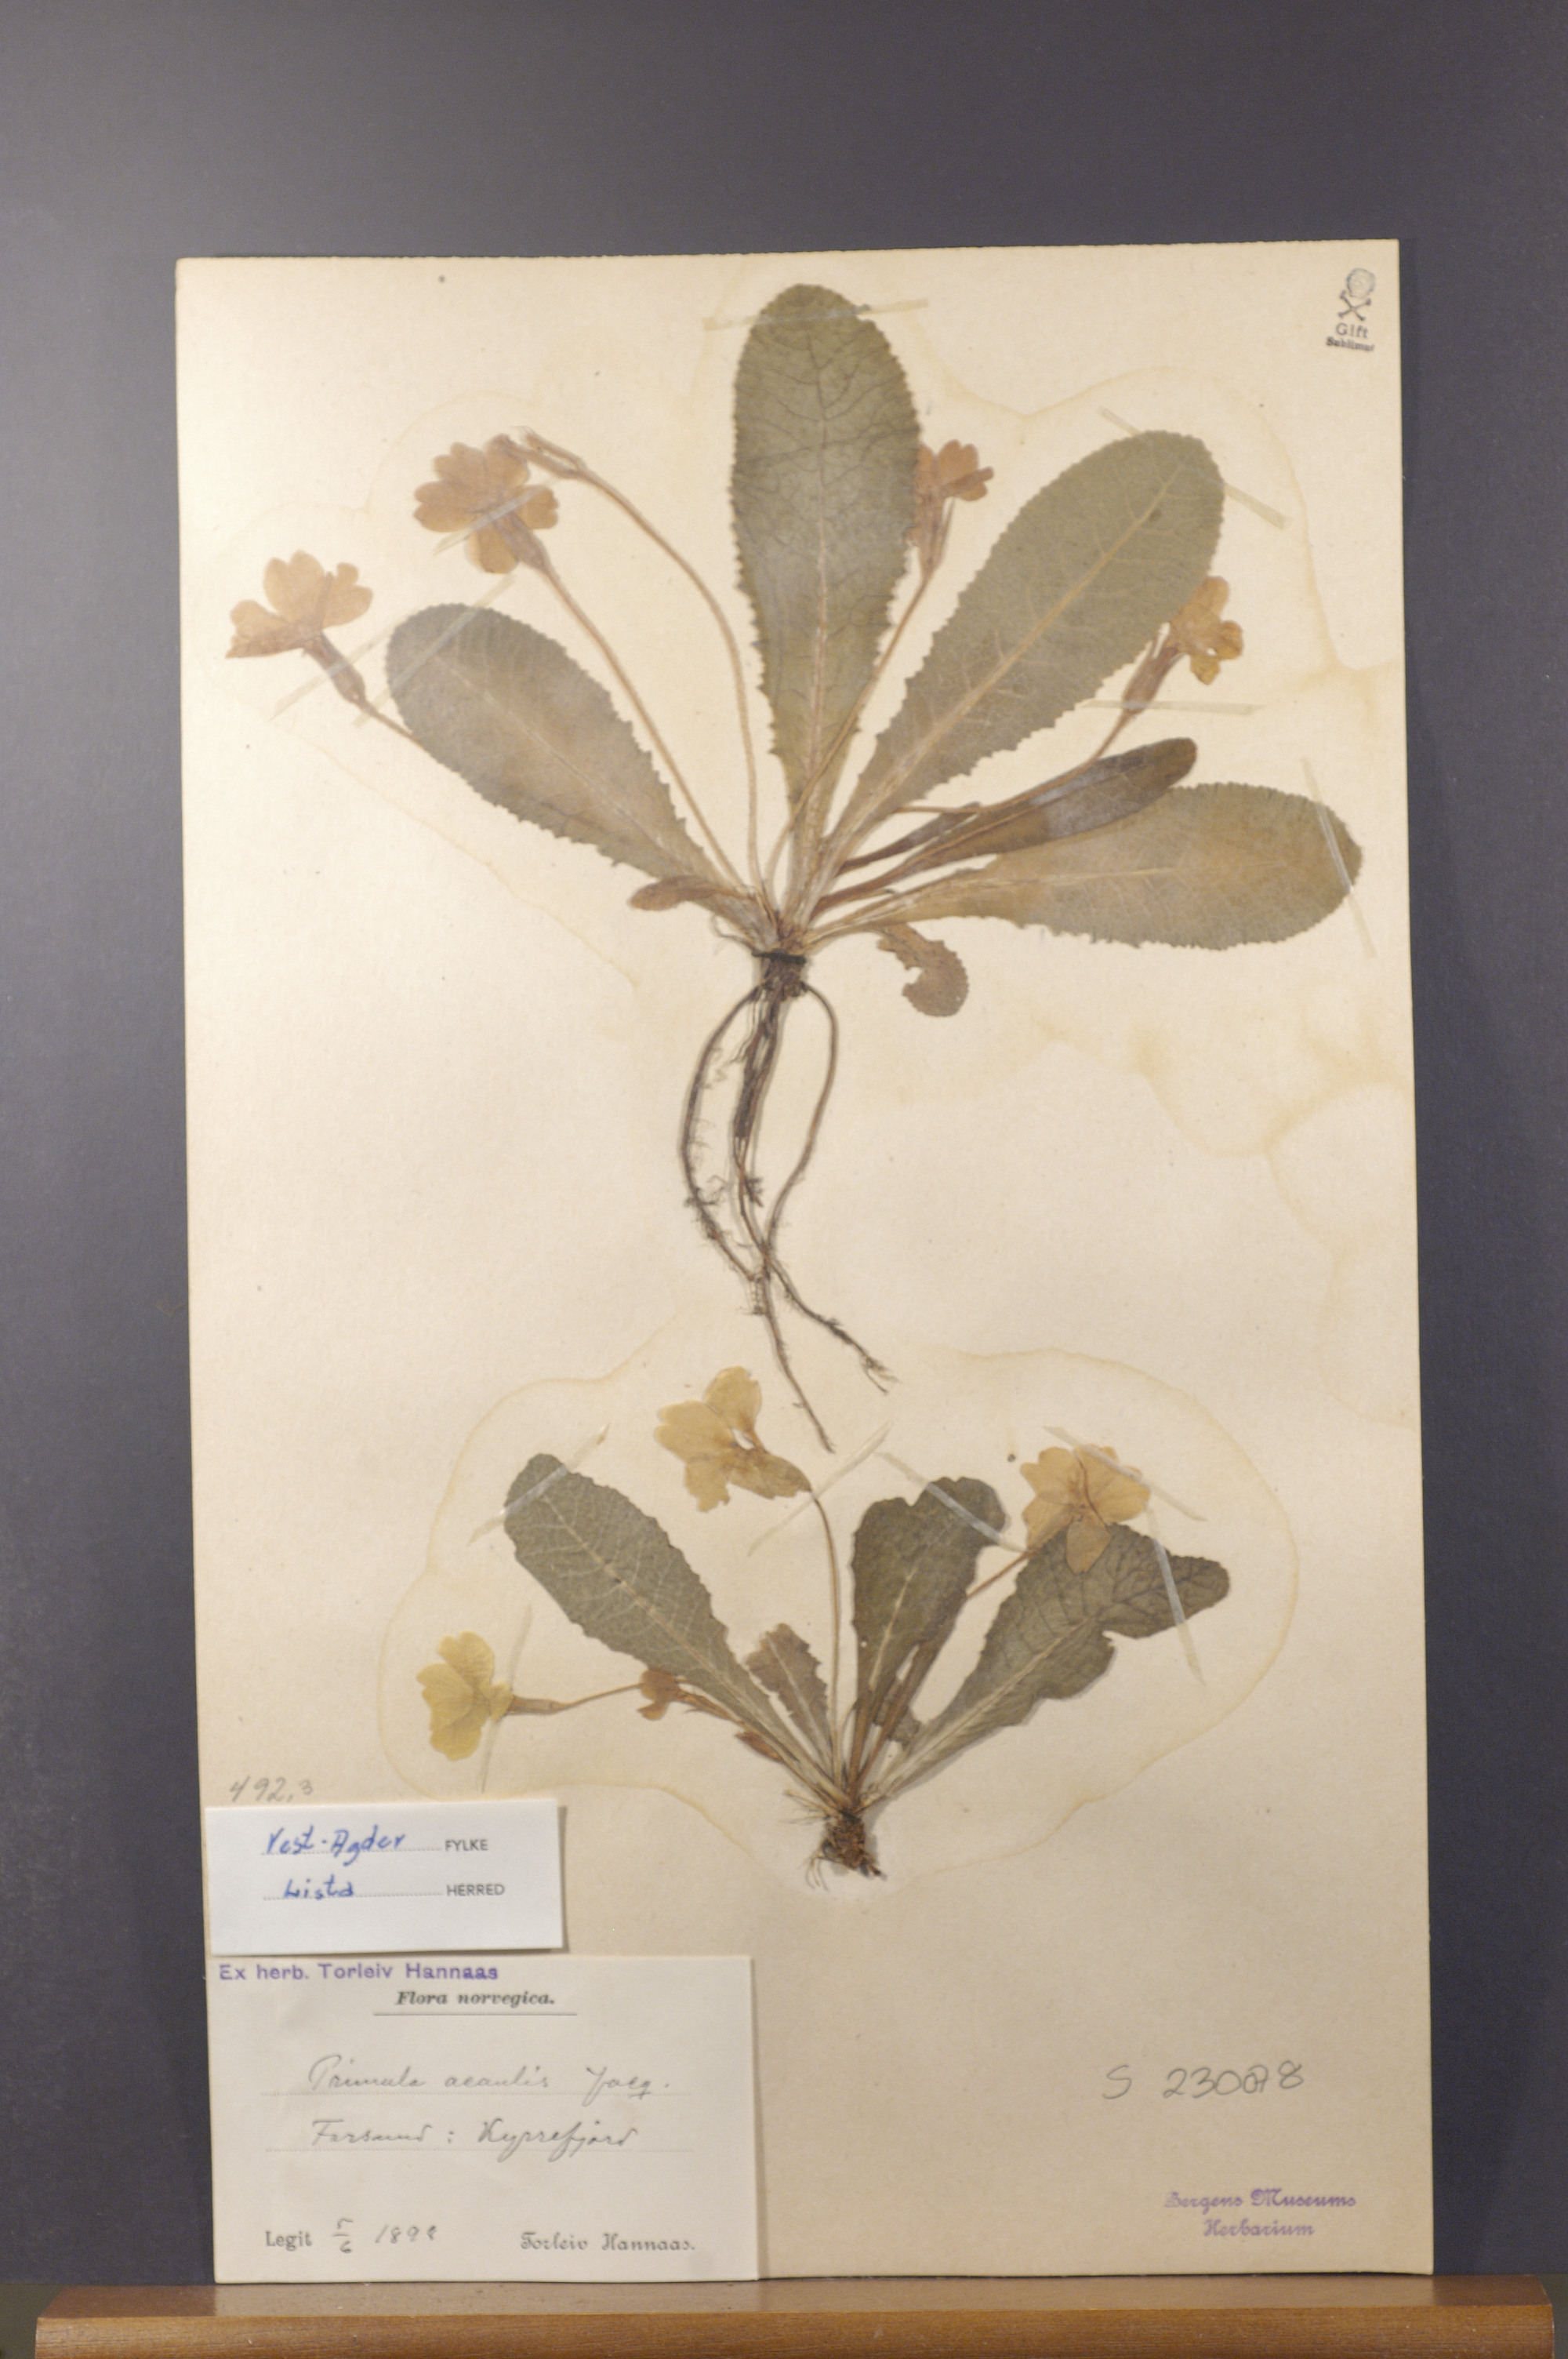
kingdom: Plantae
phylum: Tracheophyta
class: Magnoliopsida
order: Ericales
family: Primulaceae
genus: Primula
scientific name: Primula vulgaris
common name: Primrose
